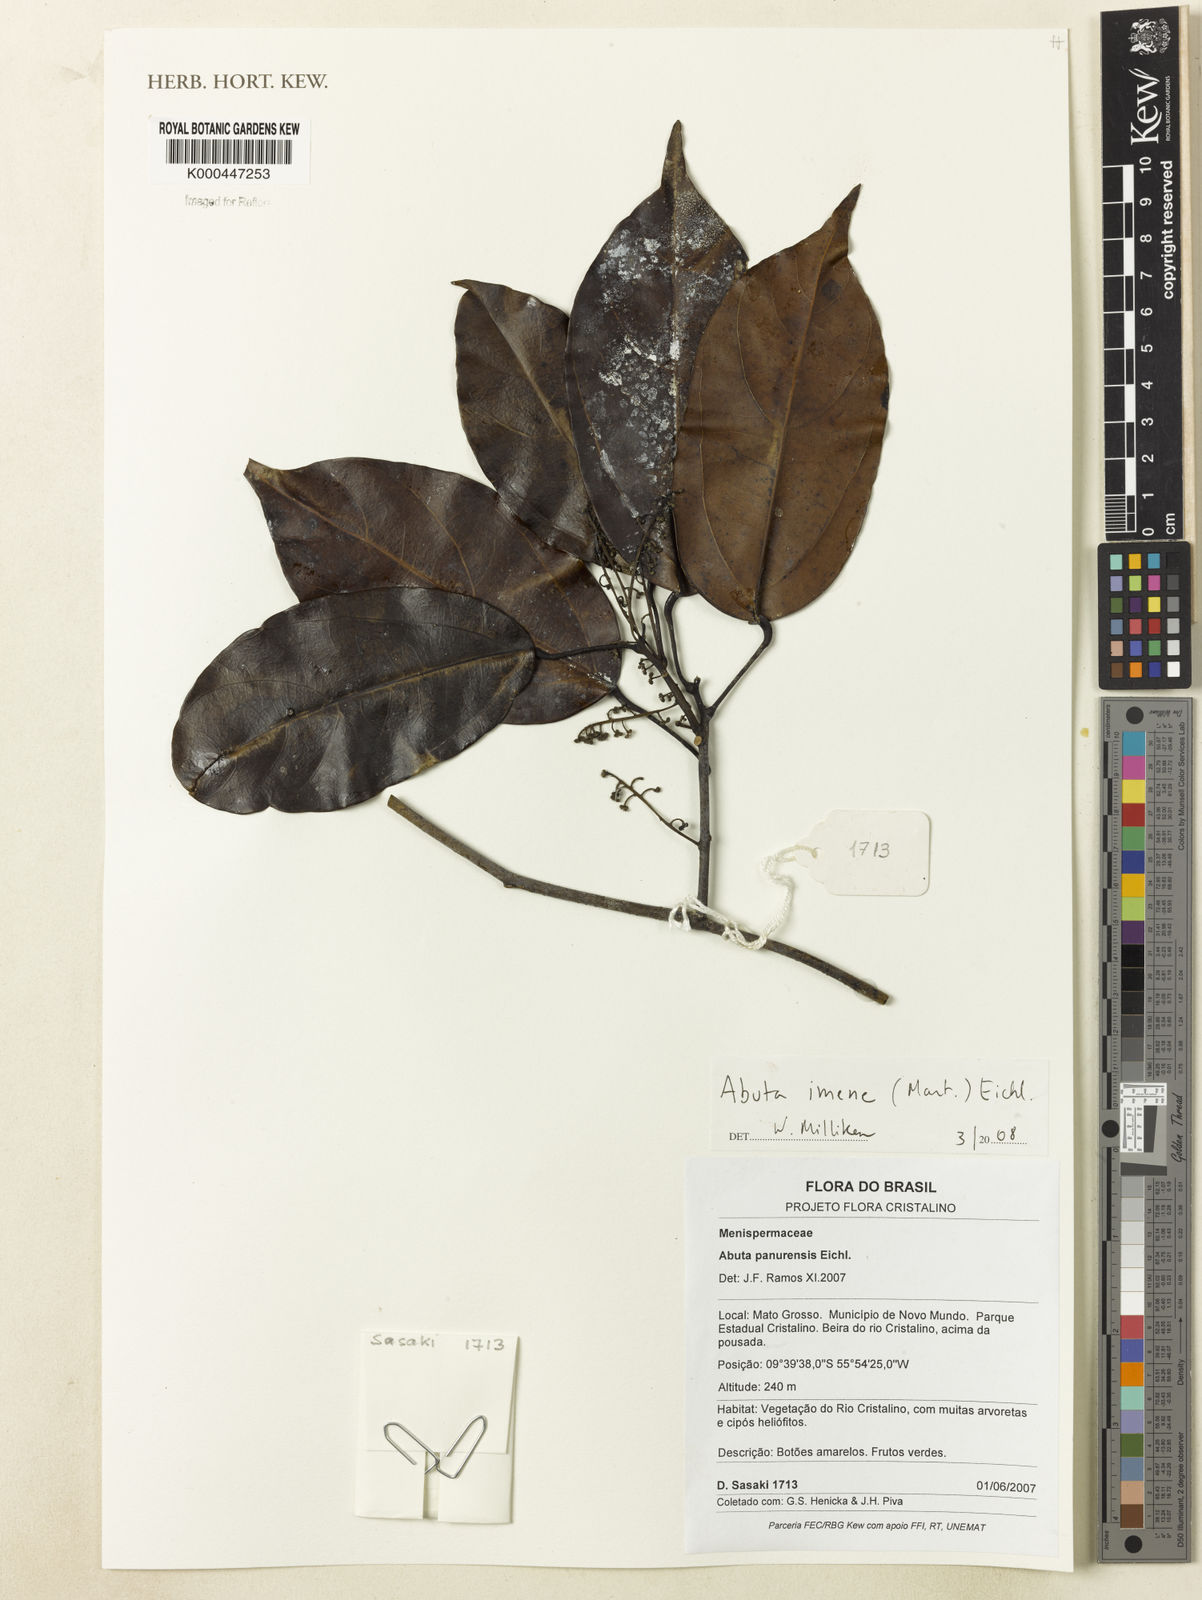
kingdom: Plantae
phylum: Tracheophyta
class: Magnoliopsida
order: Ranunculales
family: Menispermaceae
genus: Abuta
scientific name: Abuta imene
